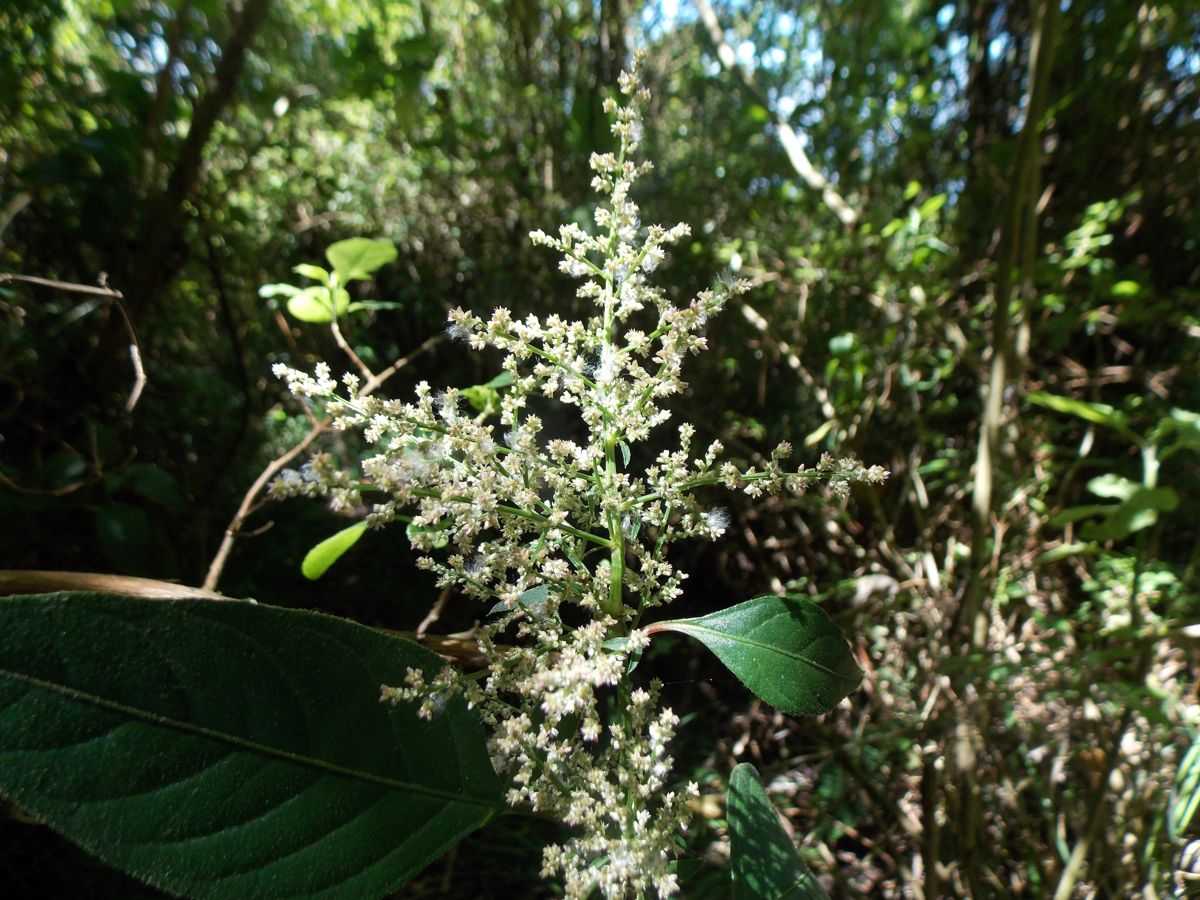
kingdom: Plantae
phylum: Tracheophyta
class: Magnoliopsida
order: Caryophyllales
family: Amaranthaceae
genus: Iresine
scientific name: Iresine latifolia
